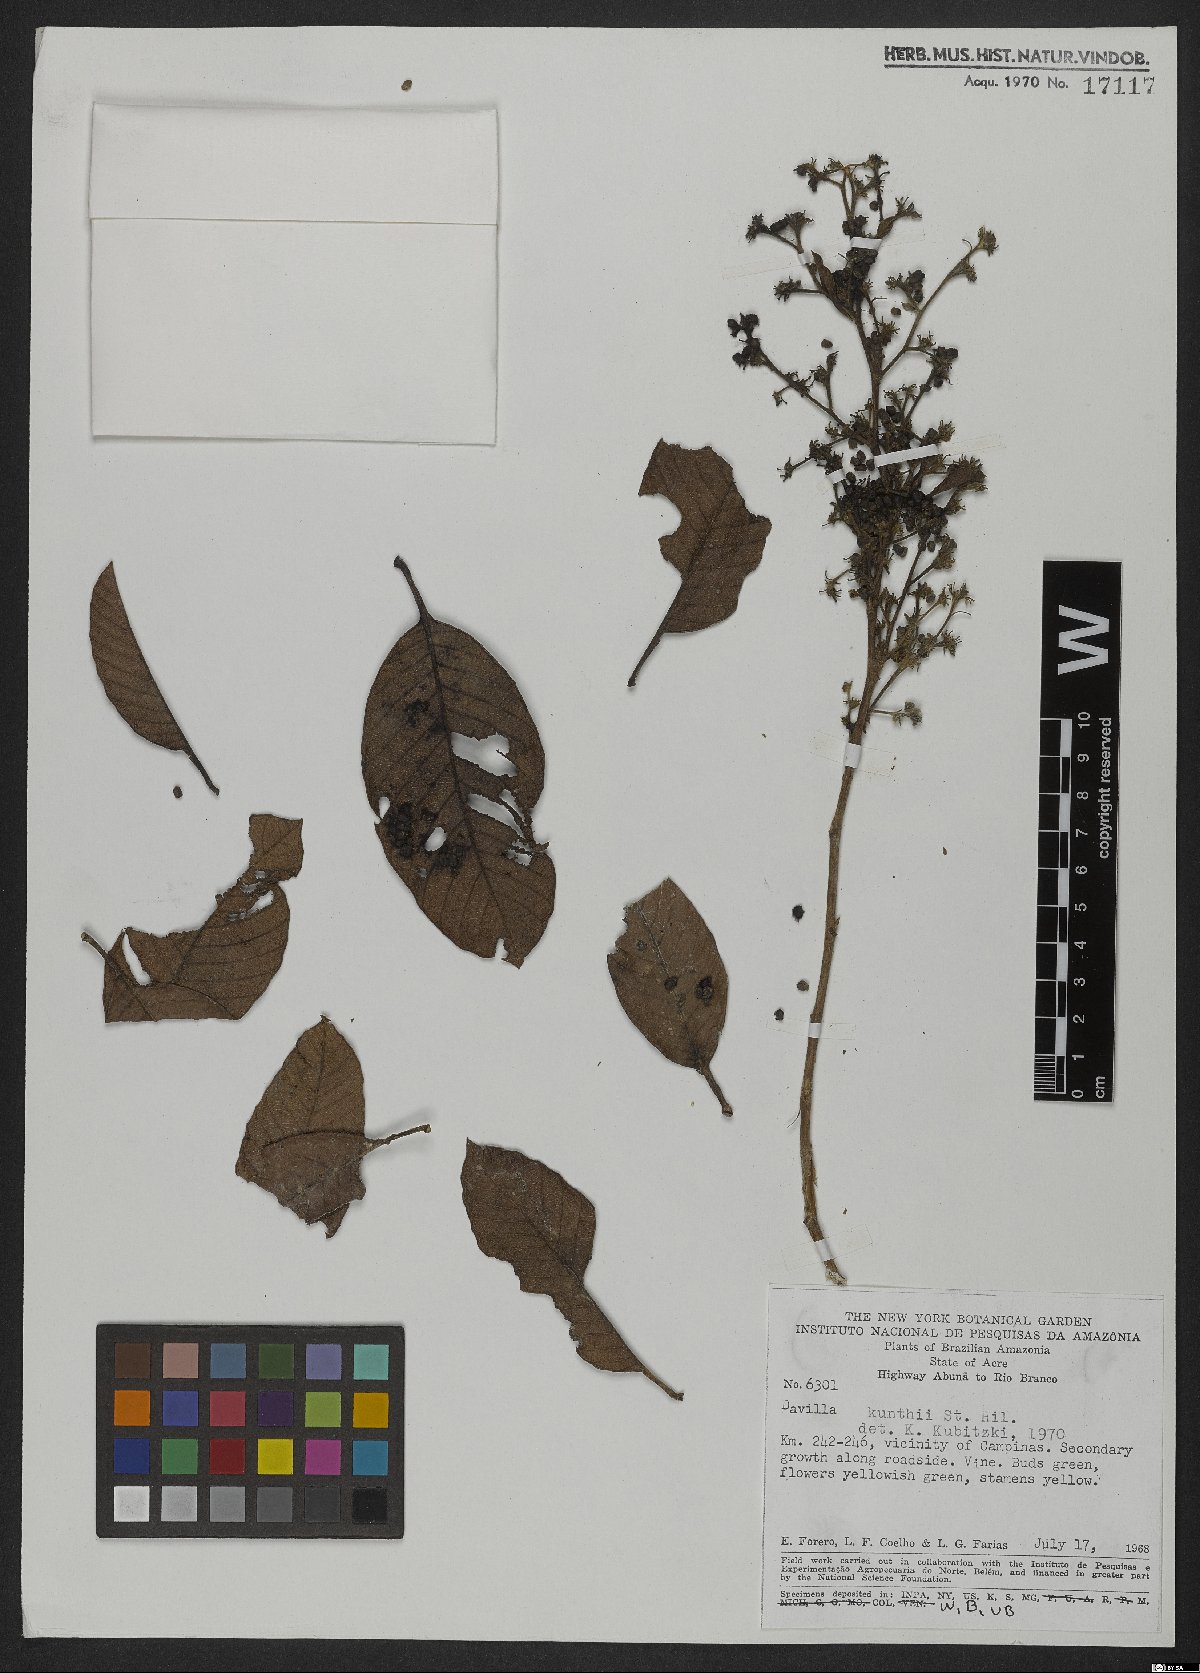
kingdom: Plantae
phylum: Tracheophyta
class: Magnoliopsida
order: Dilleniales
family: Dilleniaceae
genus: Davilla
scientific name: Davilla kunthii
